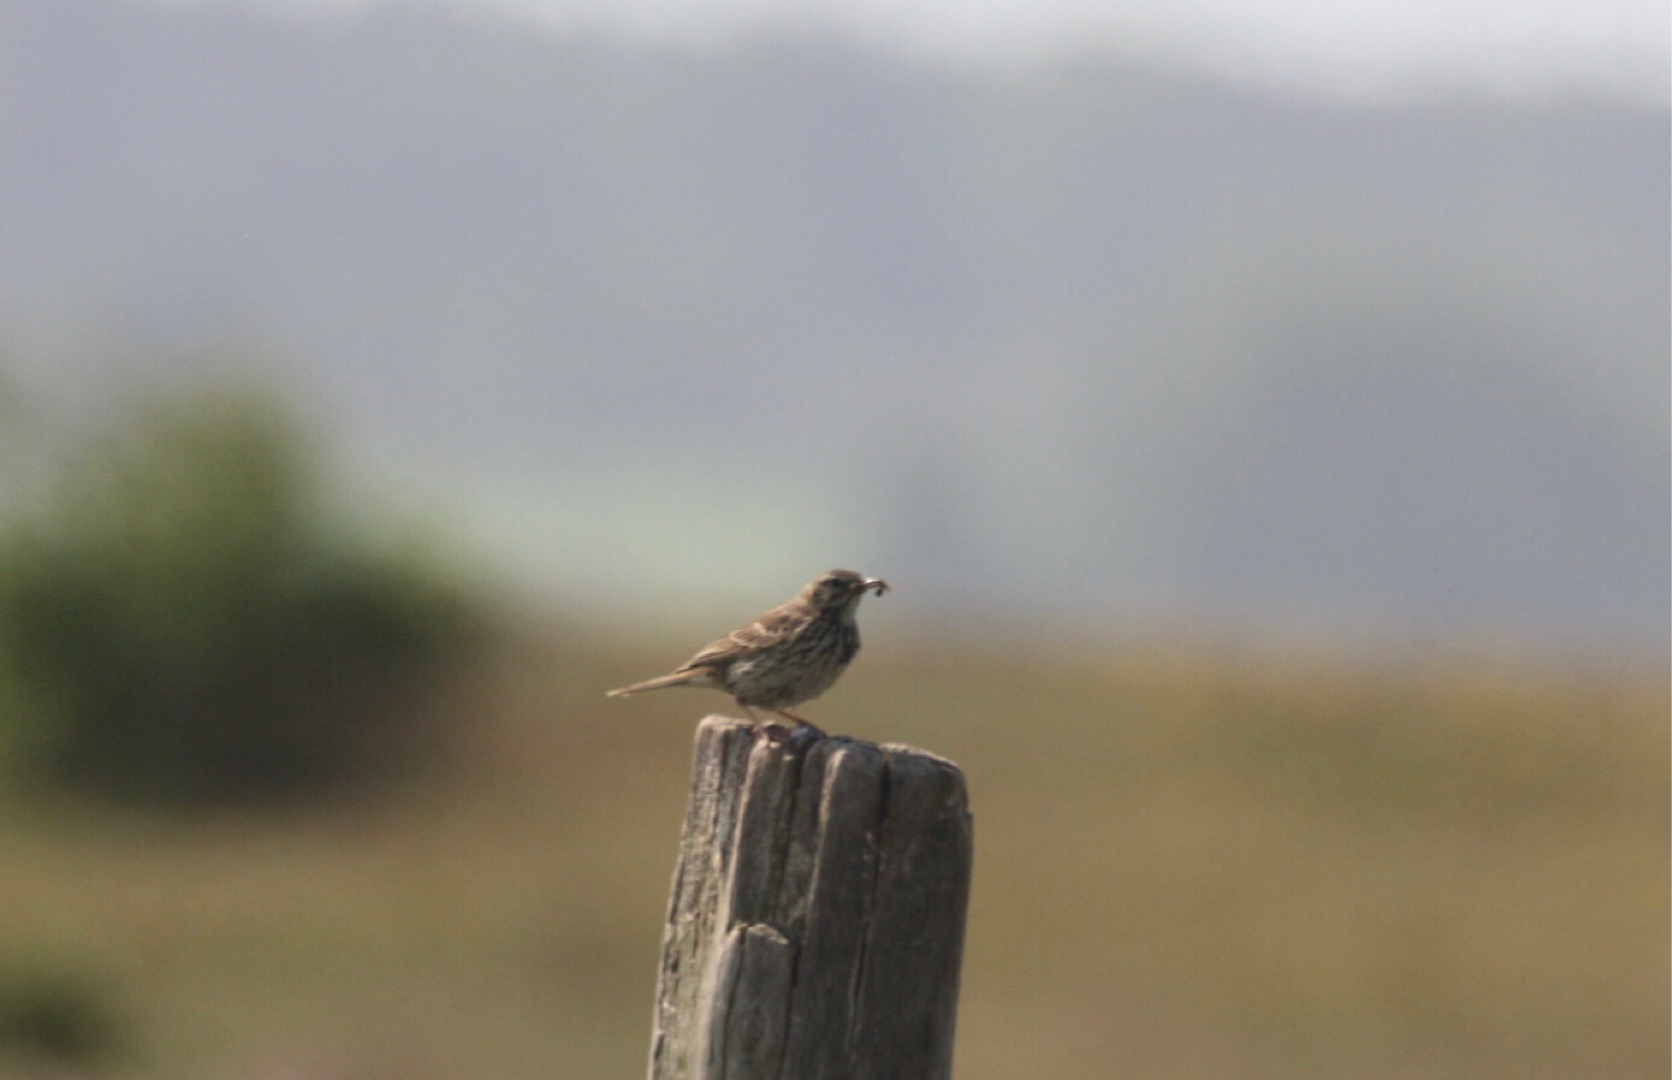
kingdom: Animalia
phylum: Chordata
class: Aves
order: Passeriformes
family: Motacillidae
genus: Anthus
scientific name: Anthus pratensis
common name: Engpiber
